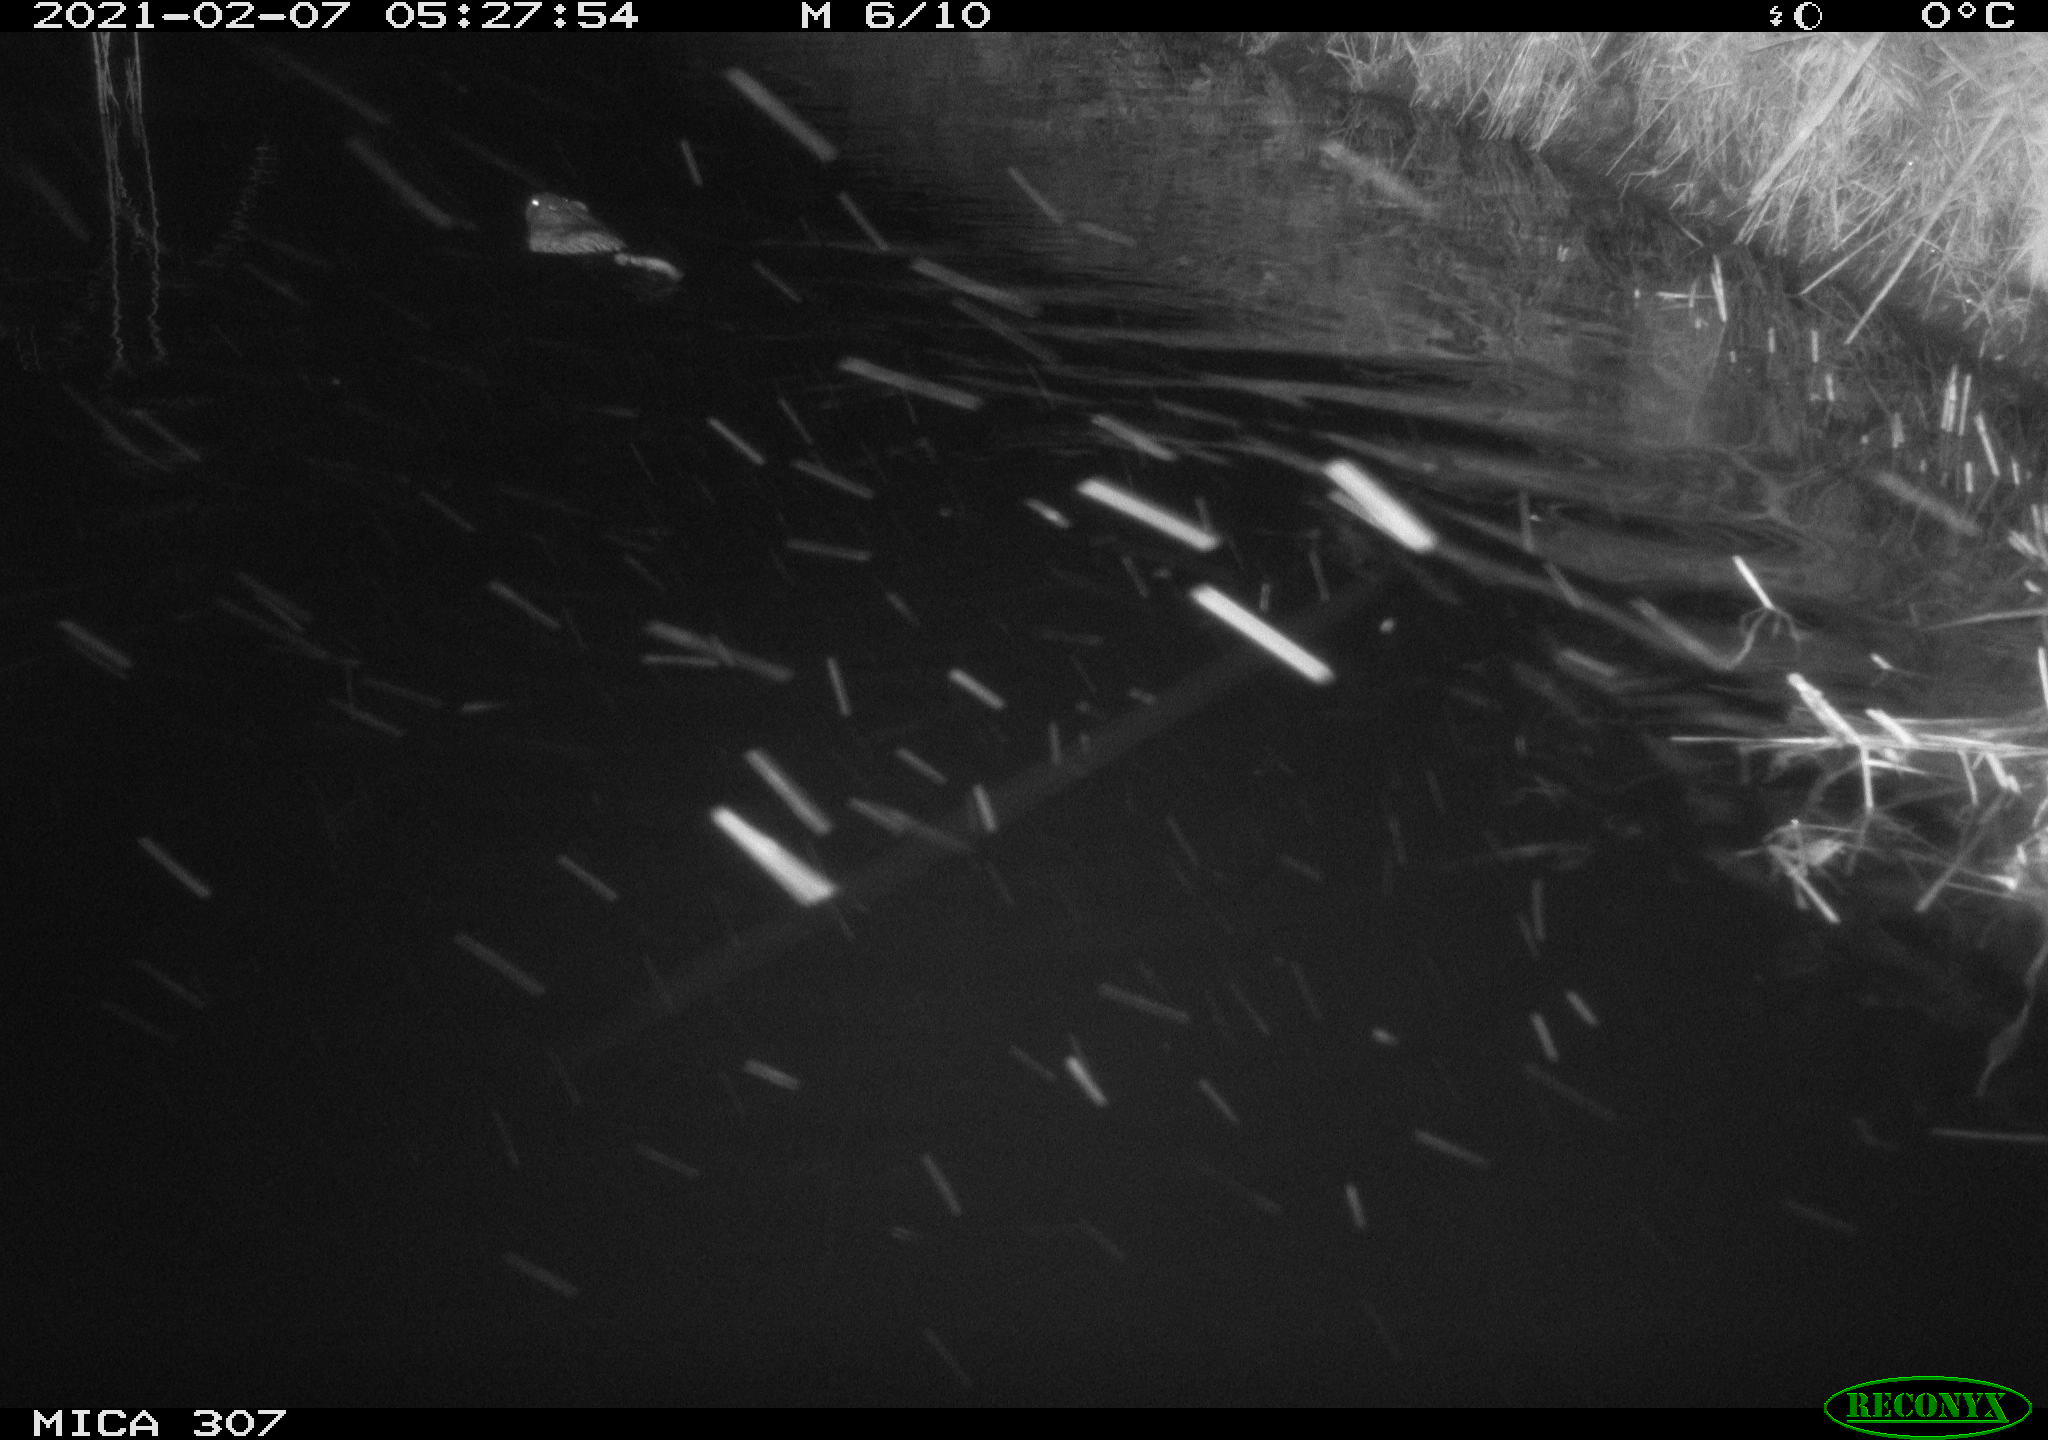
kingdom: Animalia
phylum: Chordata
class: Mammalia
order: Rodentia
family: Cricetidae
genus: Ondatra
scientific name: Ondatra zibethicus
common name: Muskrat
